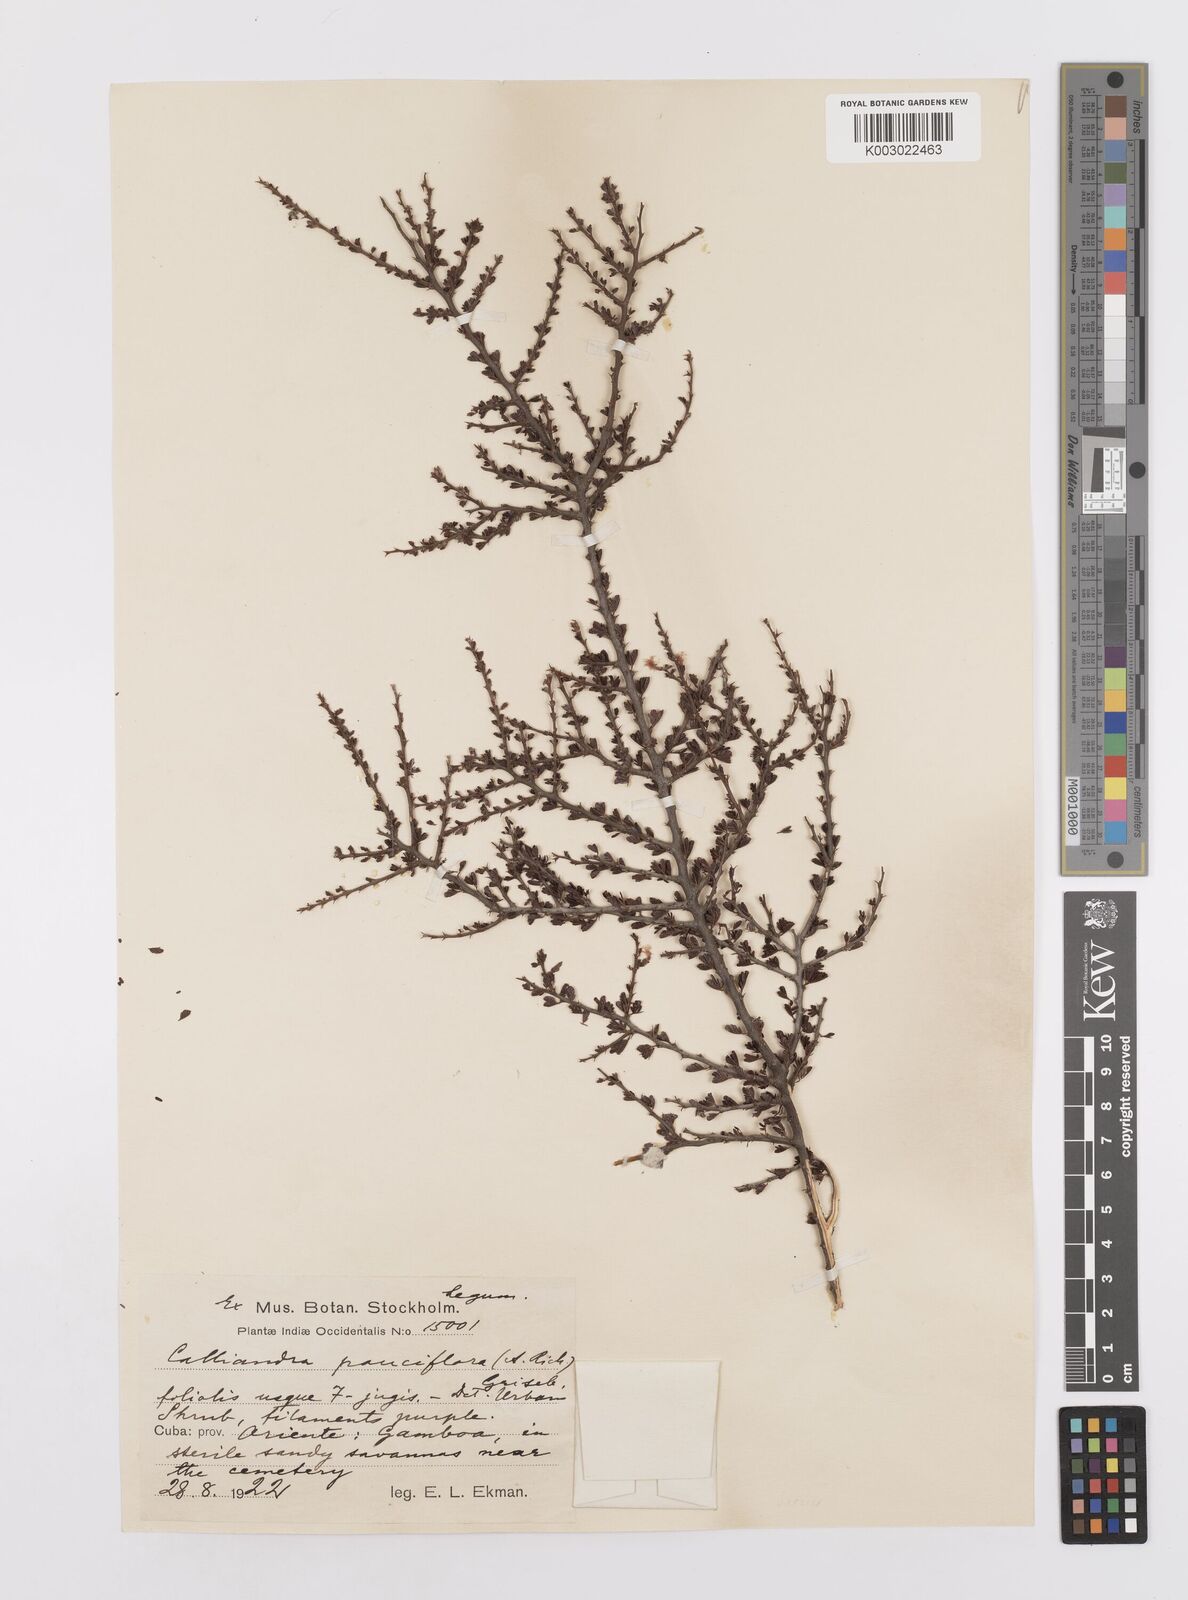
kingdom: Plantae
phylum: Tracheophyta
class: Magnoliopsida
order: Fabales
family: Fabaceae
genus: Calliandra
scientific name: Calliandra pauciflora
